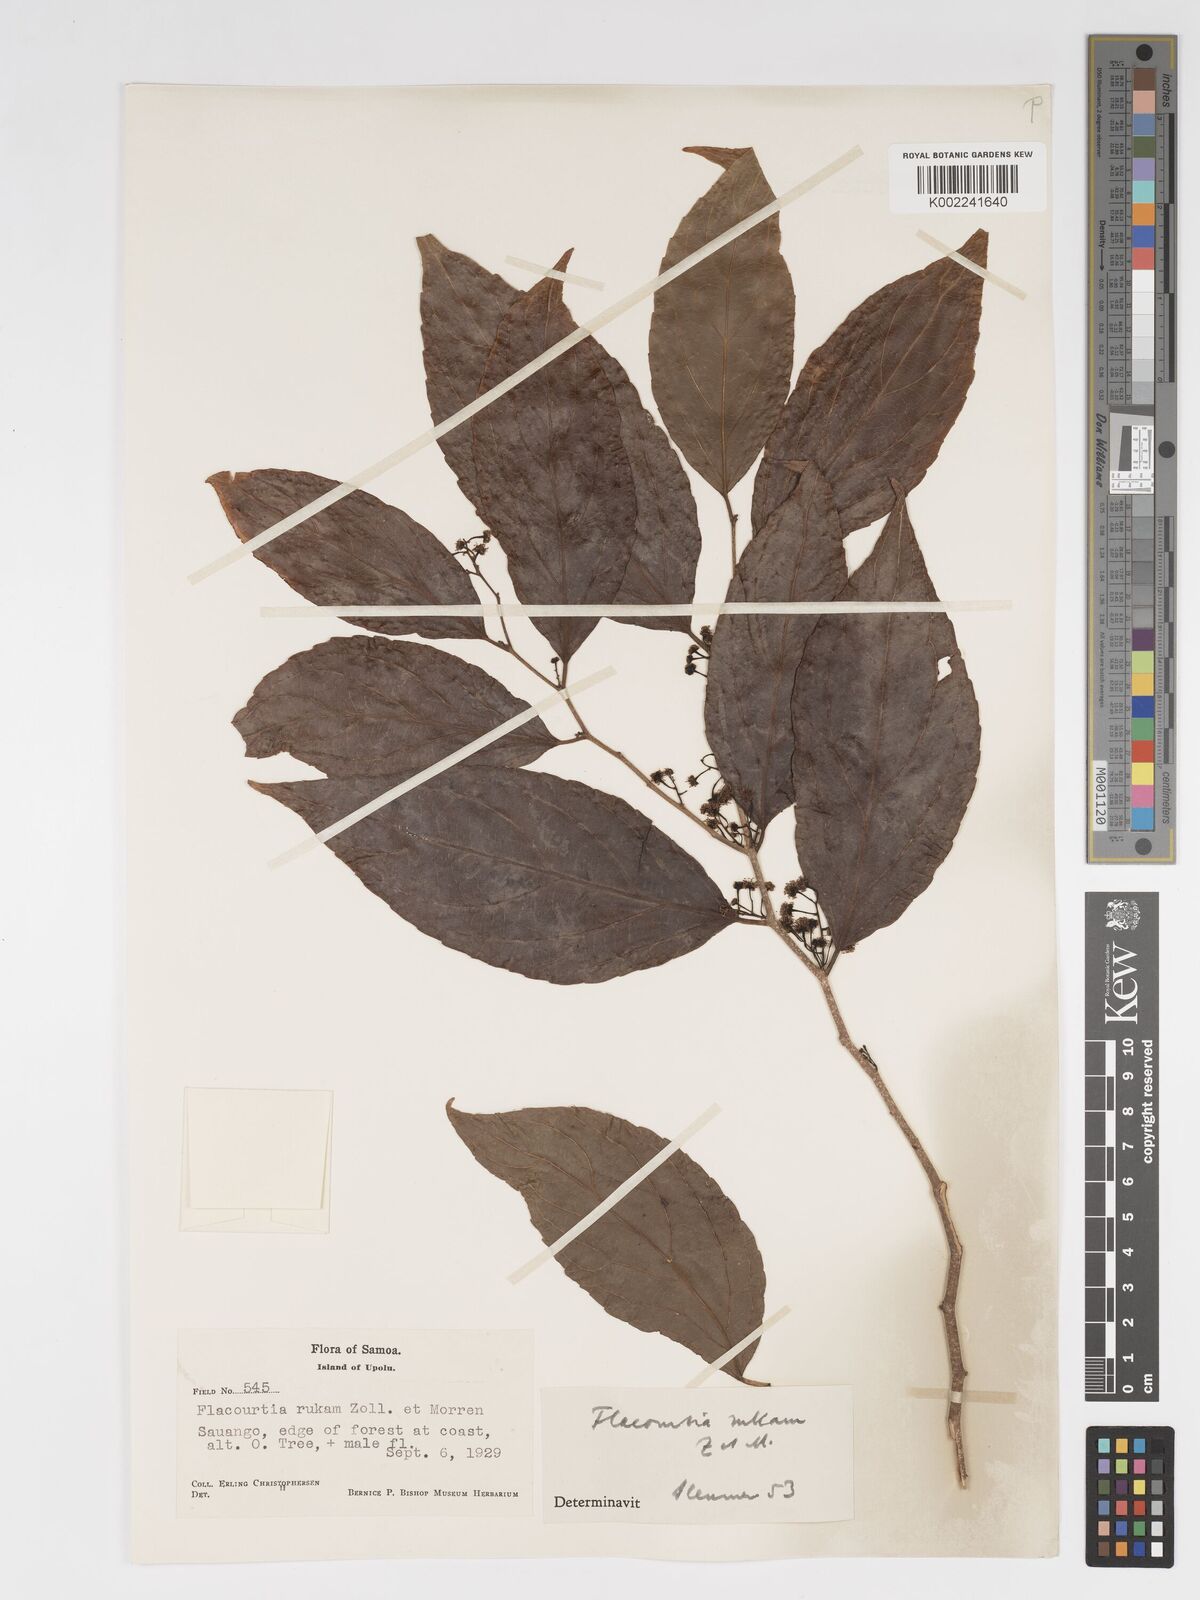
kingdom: Plantae
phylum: Tracheophyta
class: Magnoliopsida
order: Malpighiales
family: Salicaceae
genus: Flacourtia
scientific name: Flacourtia rukam
